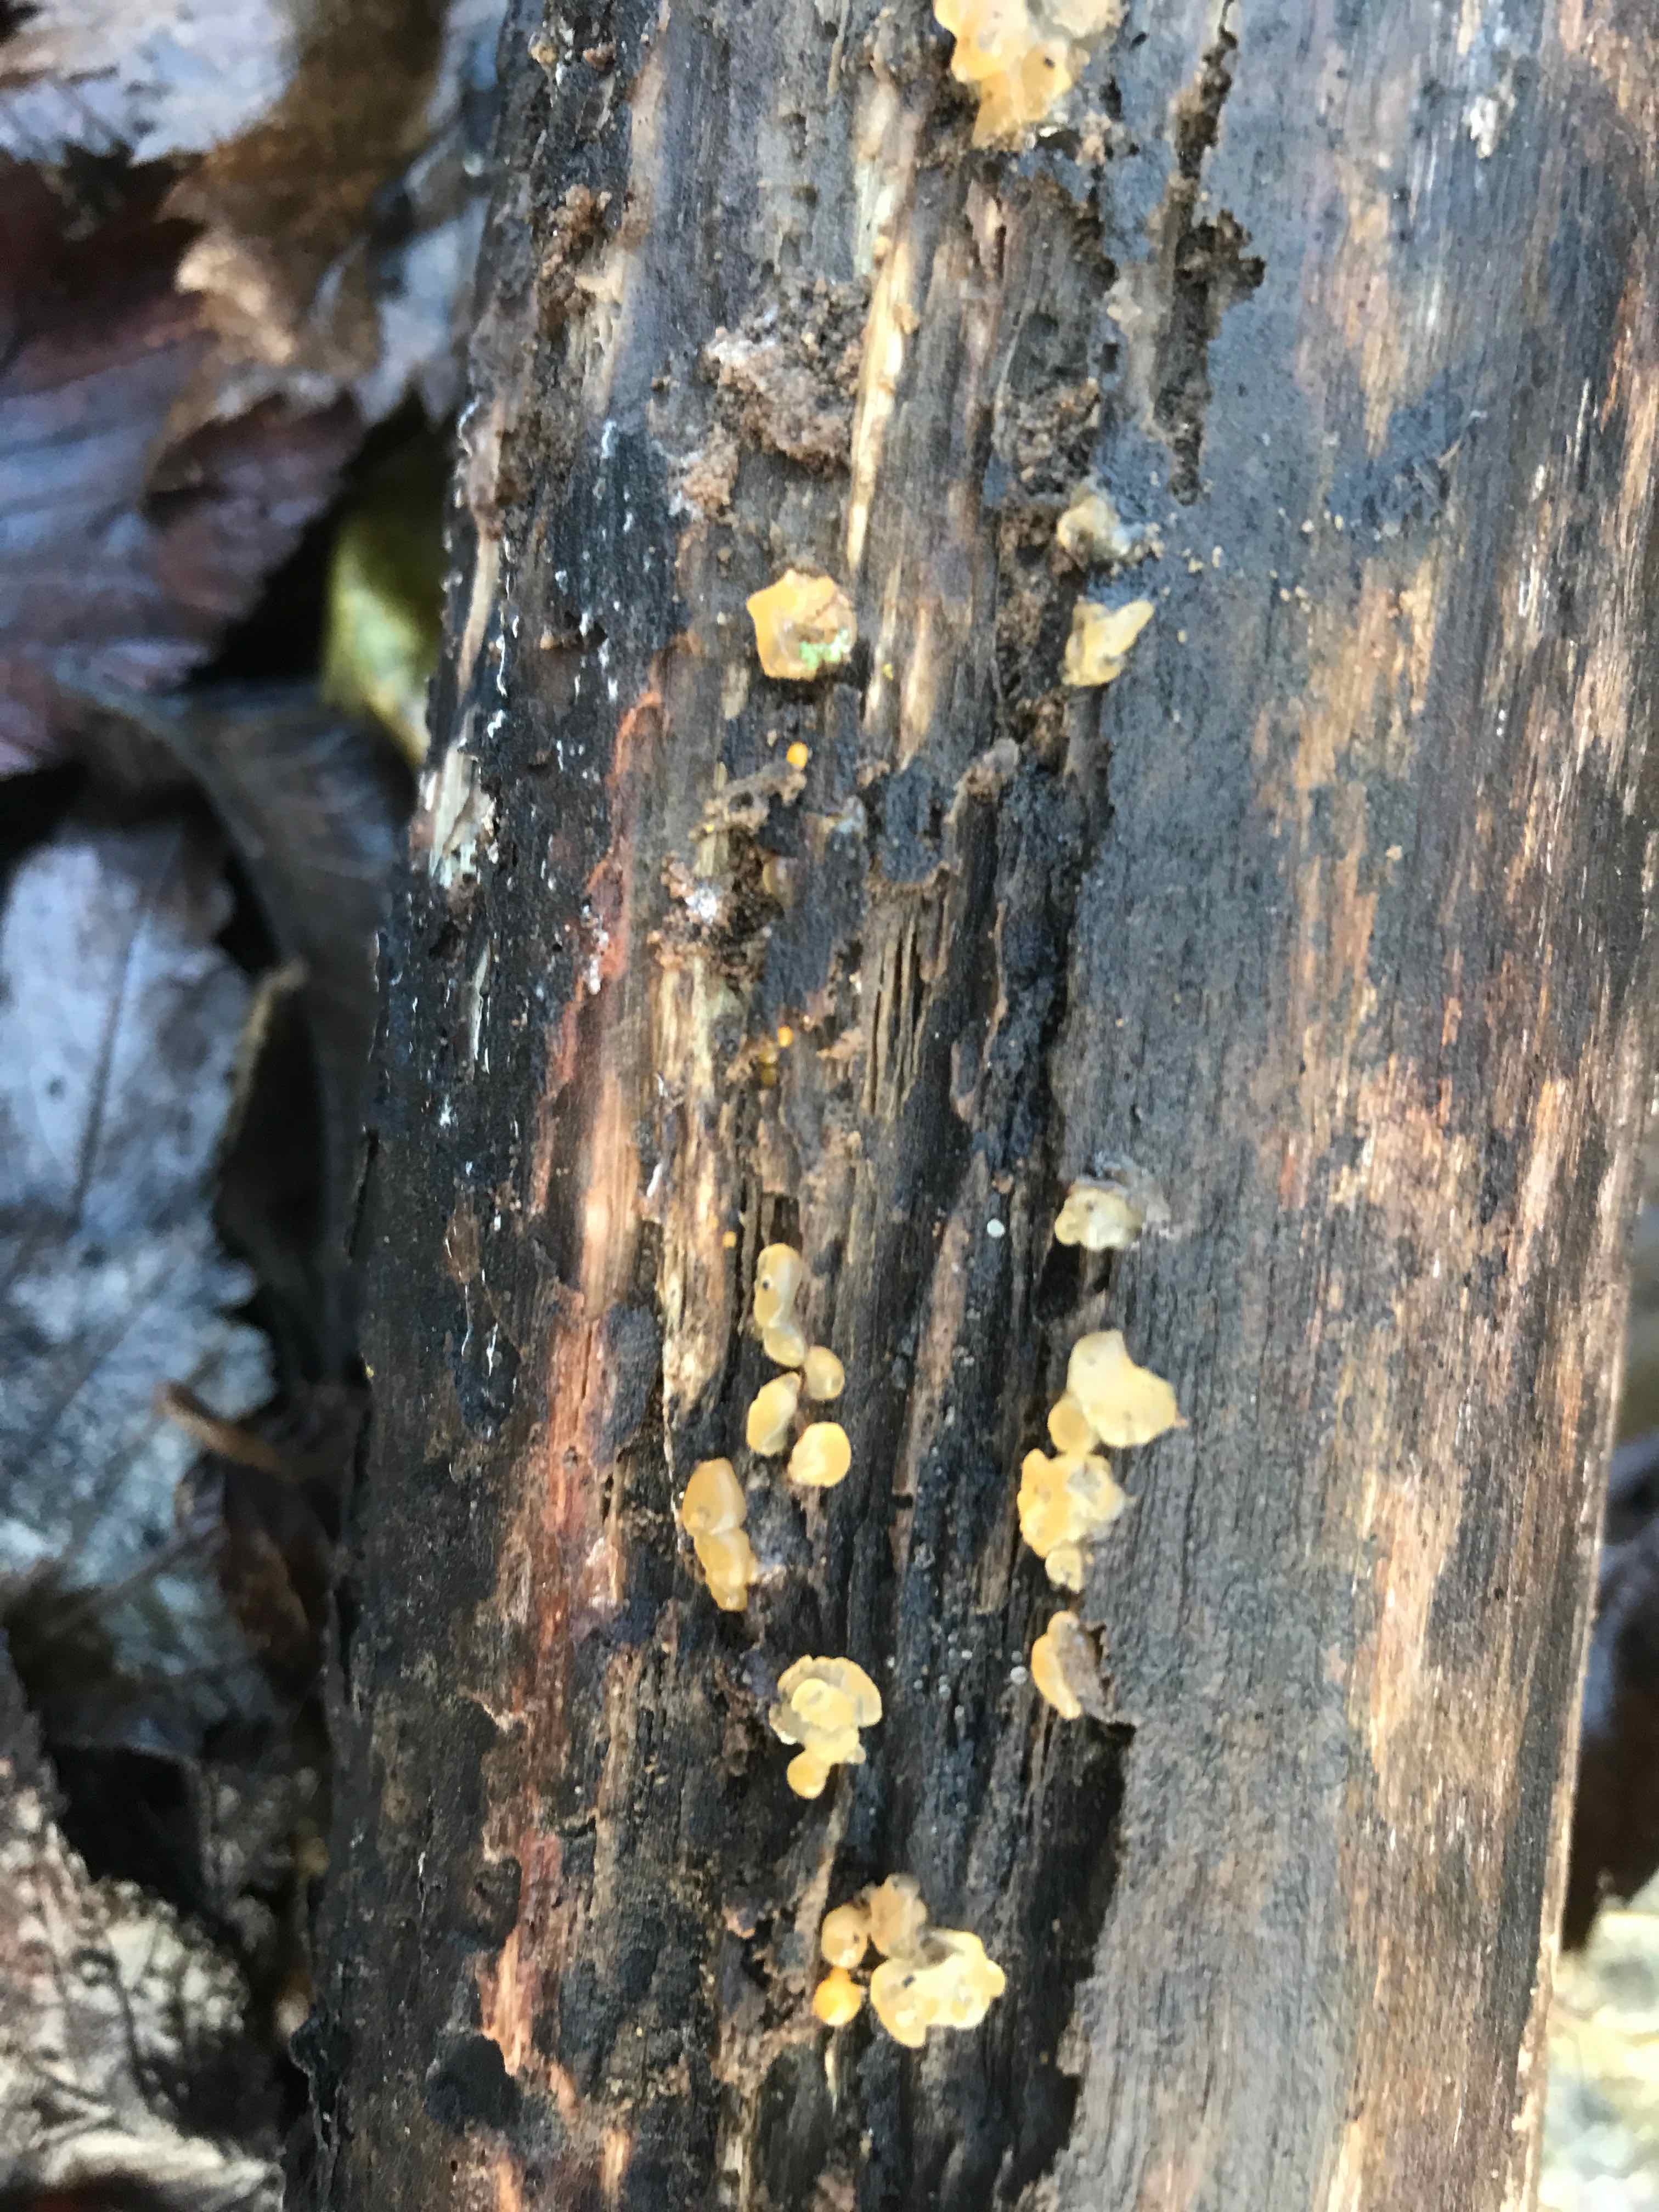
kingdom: Fungi
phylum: Basidiomycota
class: Dacrymycetes
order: Dacrymycetales
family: Dacrymycetaceae
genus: Dacrymyces
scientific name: Dacrymyces
